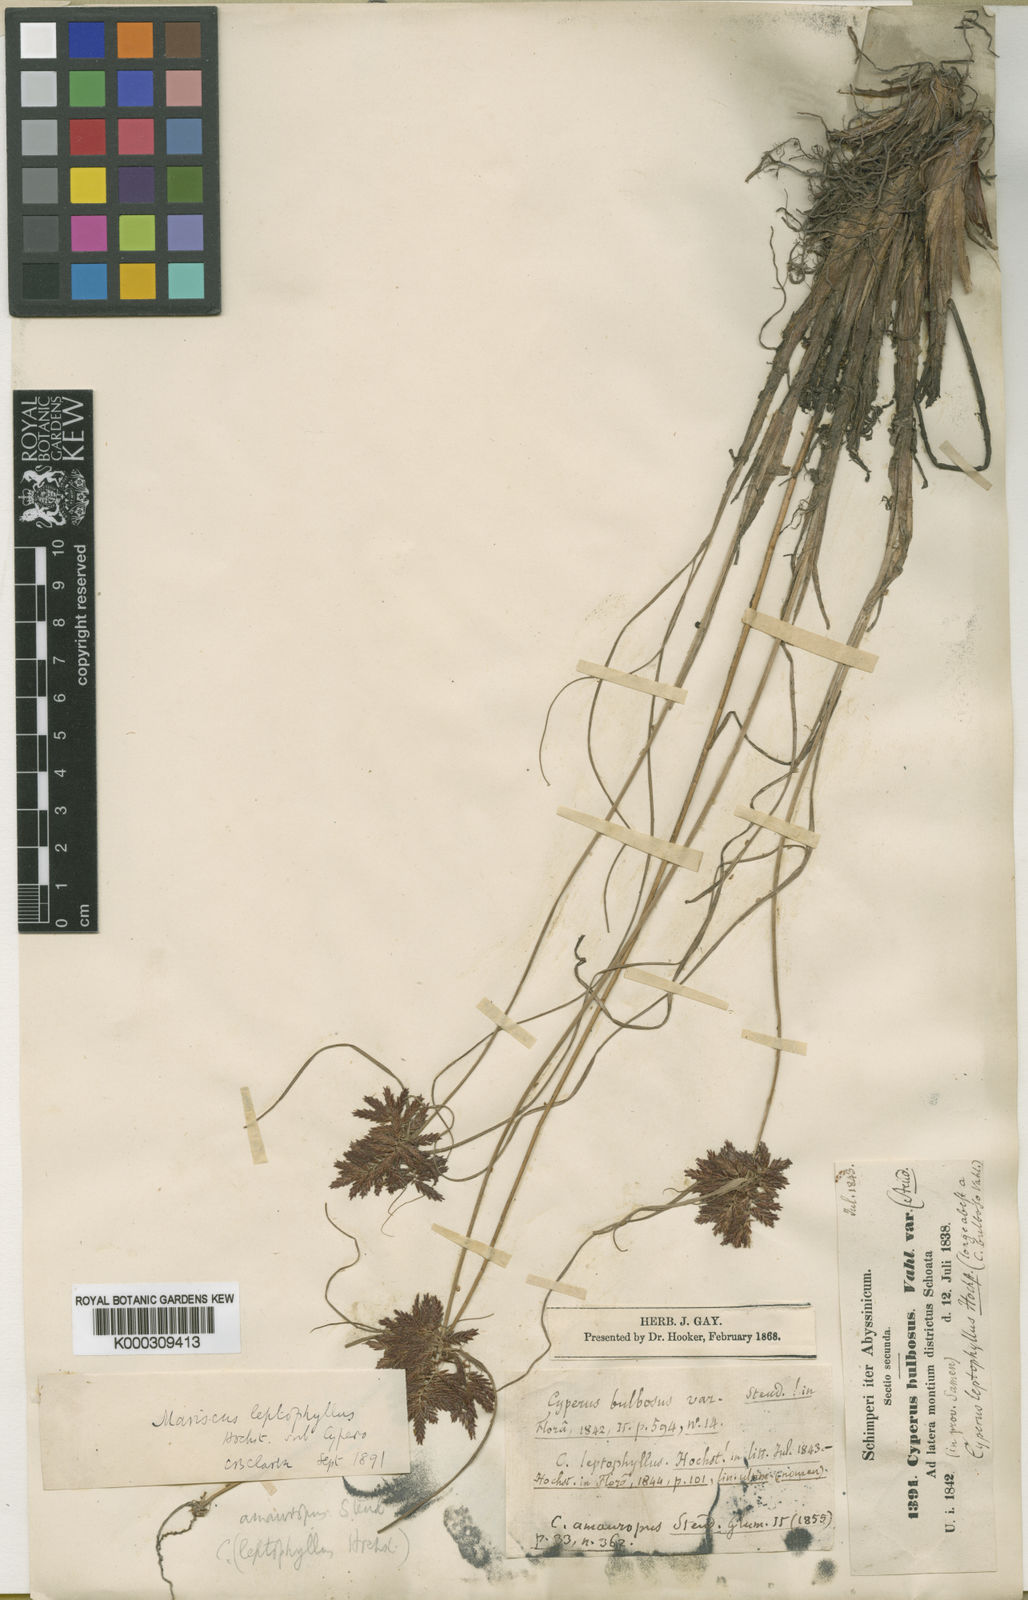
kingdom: Plantae
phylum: Tracheophyta
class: Liliopsida
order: Poales
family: Cyperaceae
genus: Cyperus
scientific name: Cyperus
